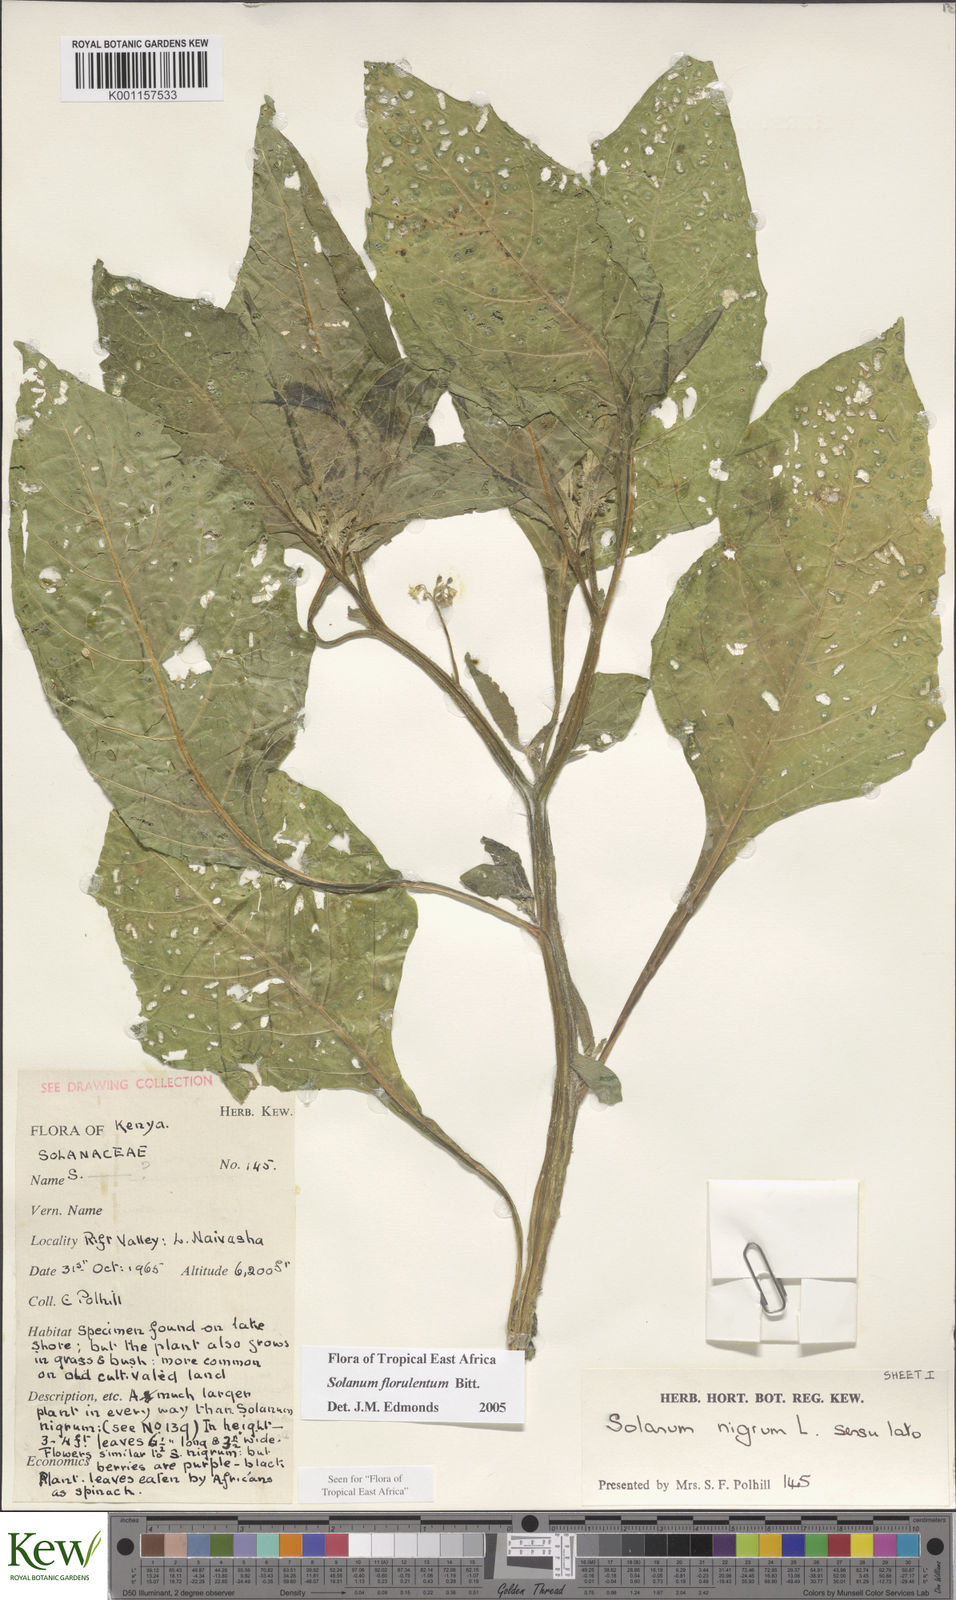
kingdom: Plantae
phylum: Tracheophyta
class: Magnoliopsida
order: Solanales
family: Solanaceae
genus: Solanum
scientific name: Solanum tarderemotum
